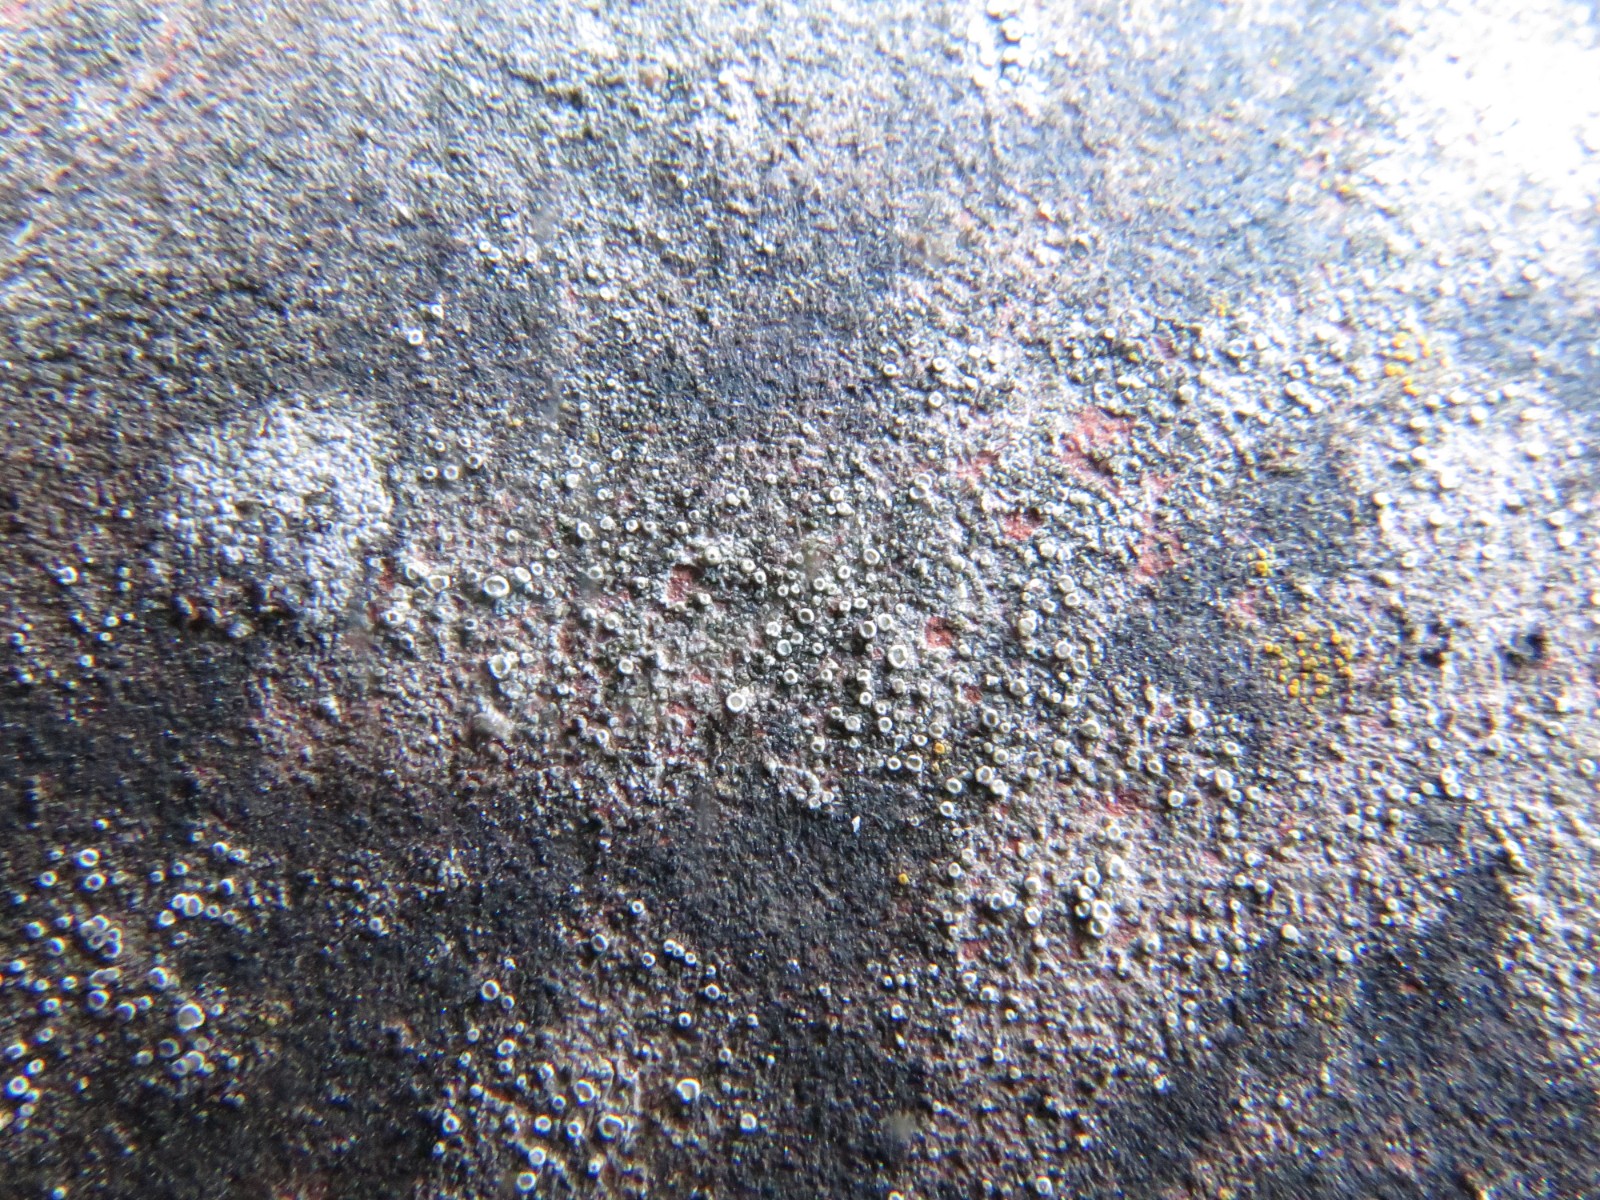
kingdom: Fungi
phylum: Ascomycota
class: Lecanoromycetes
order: Lecanorales
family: Lecanoraceae
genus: Polyozosia
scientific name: Polyozosia dispersa
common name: spredt kantskivelav
